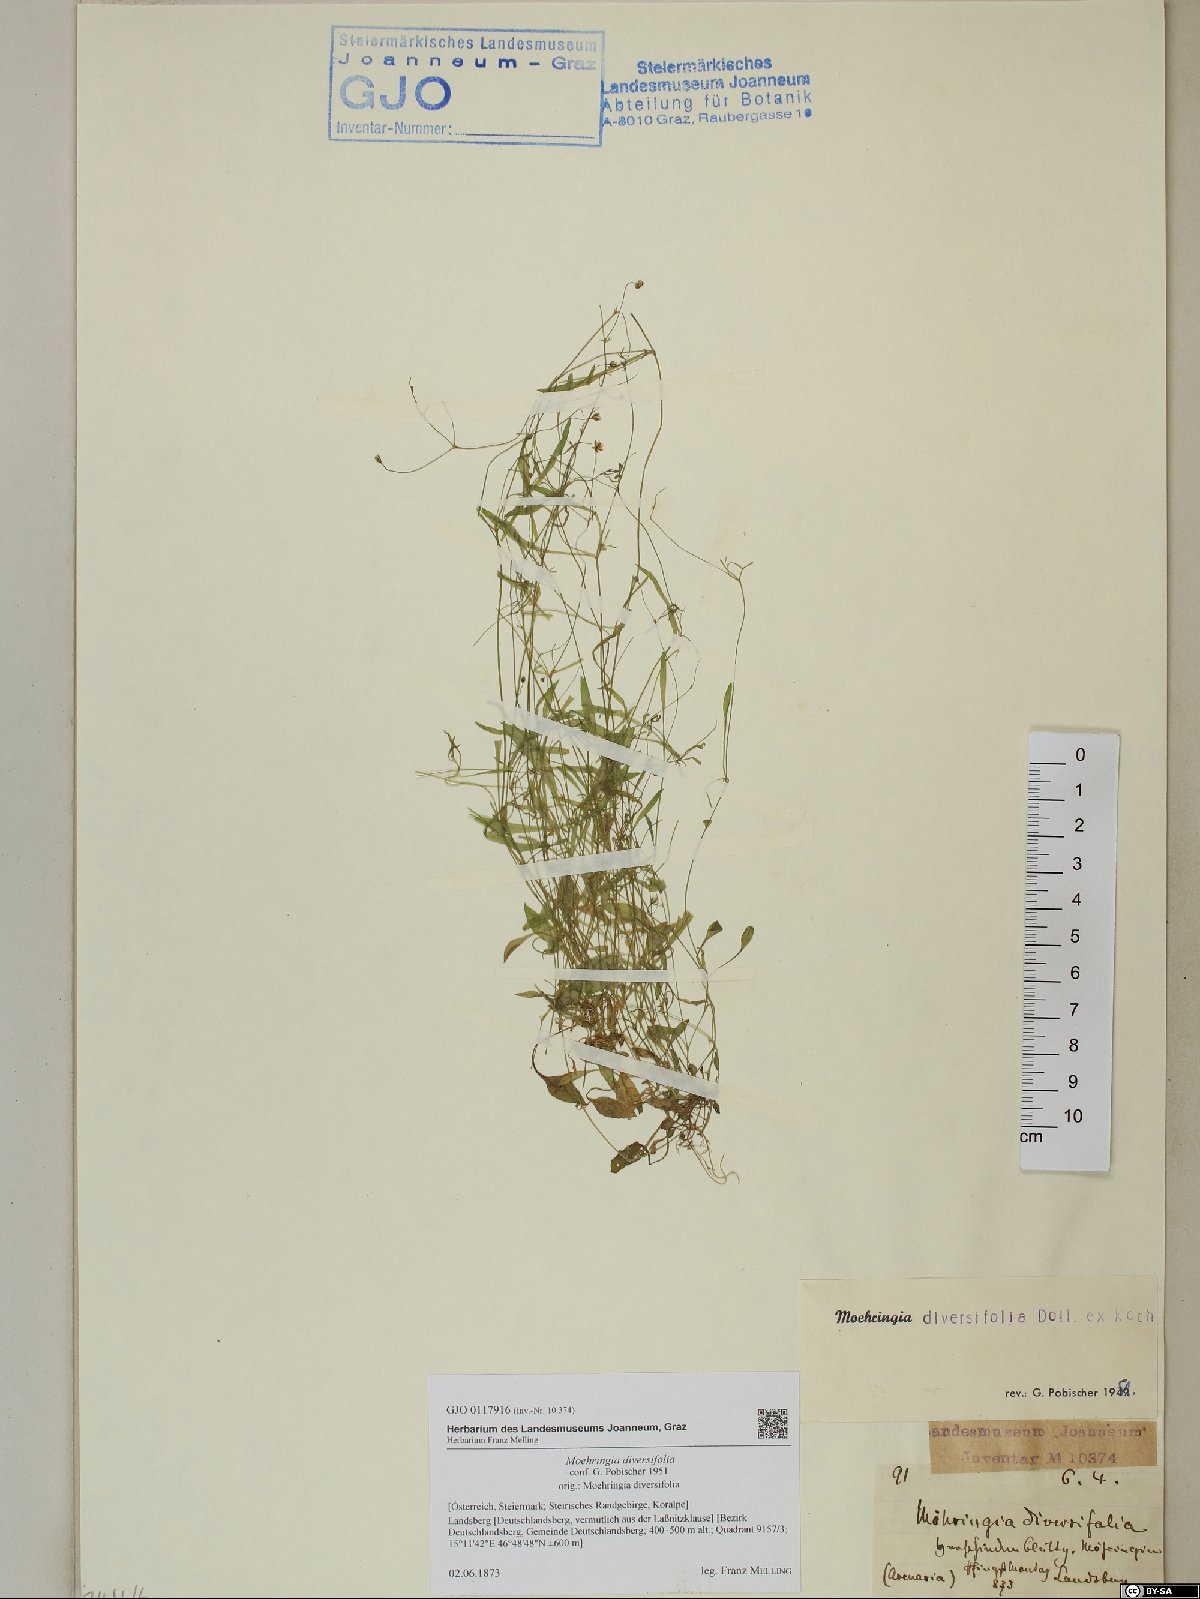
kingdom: Plantae
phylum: Tracheophyta
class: Magnoliopsida
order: Caryophyllales
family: Caryophyllaceae
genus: Moehringia
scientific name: Moehringia diversifolia
